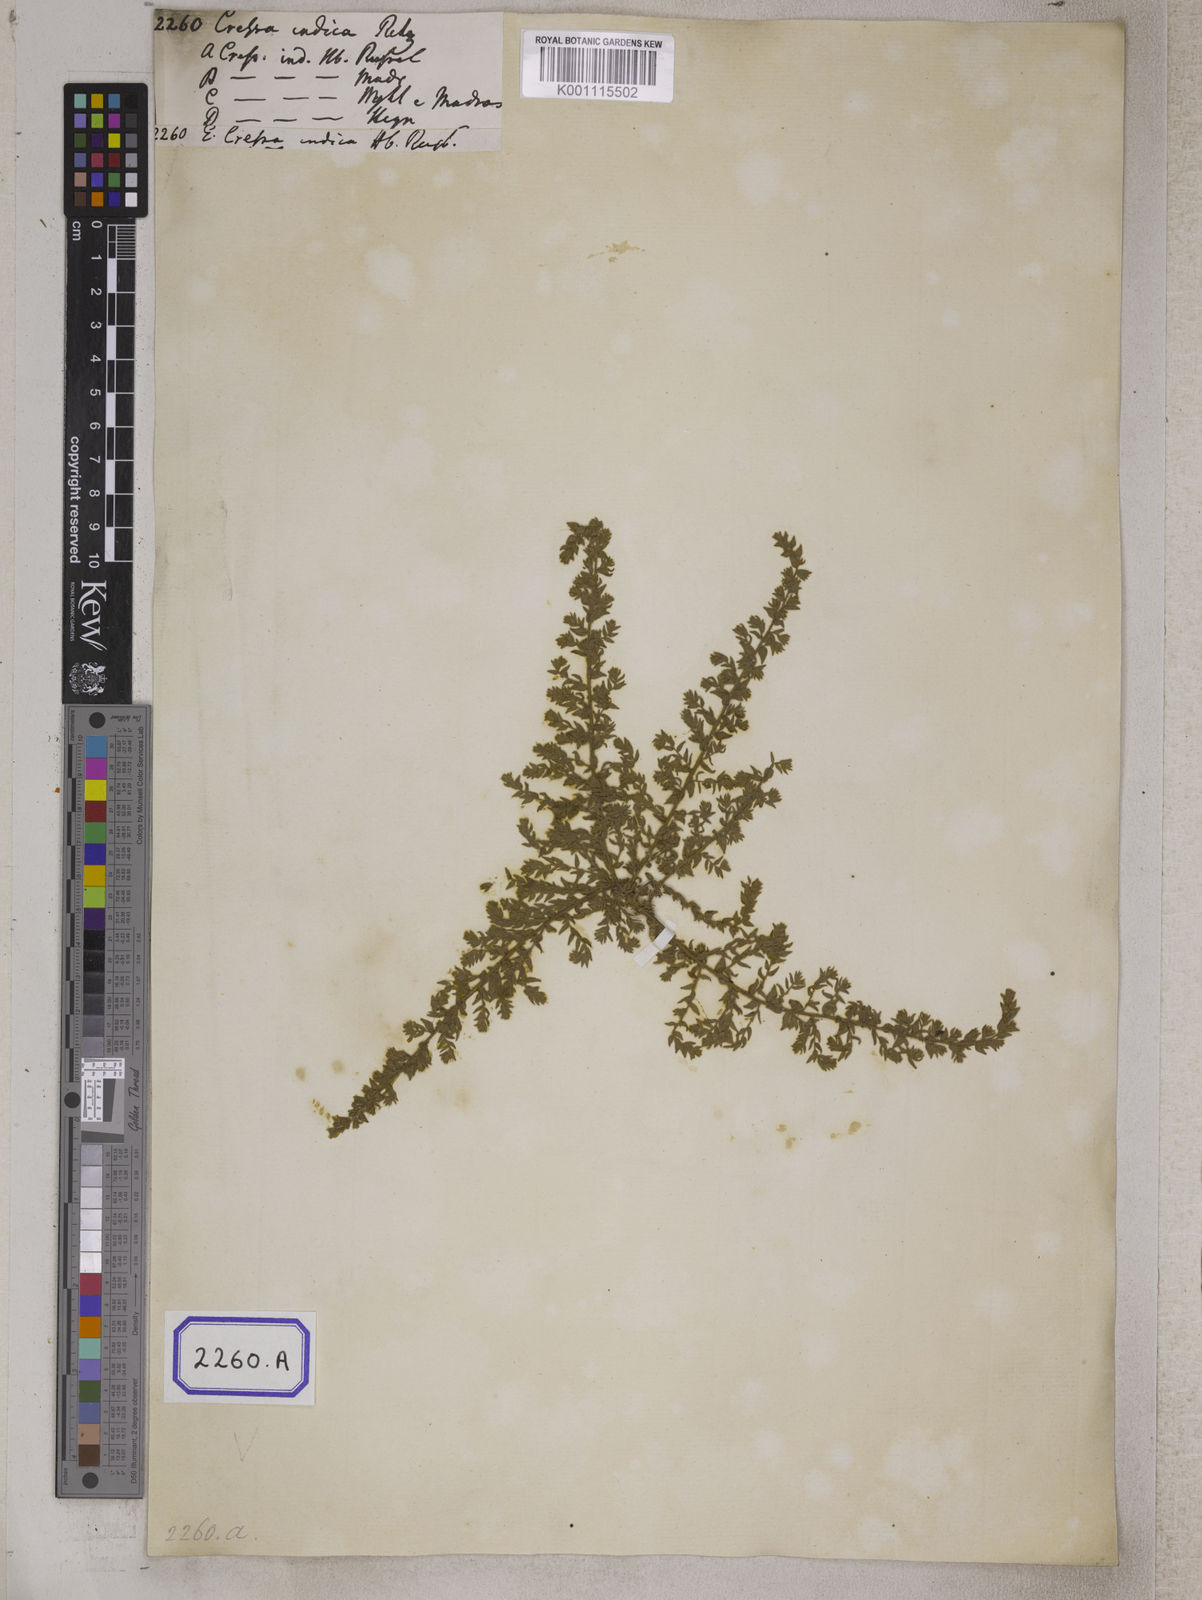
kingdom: Plantae
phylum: Tracheophyta
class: Magnoliopsida
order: Solanales
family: Convolvulaceae
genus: Cressa
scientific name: Cressa cretica
